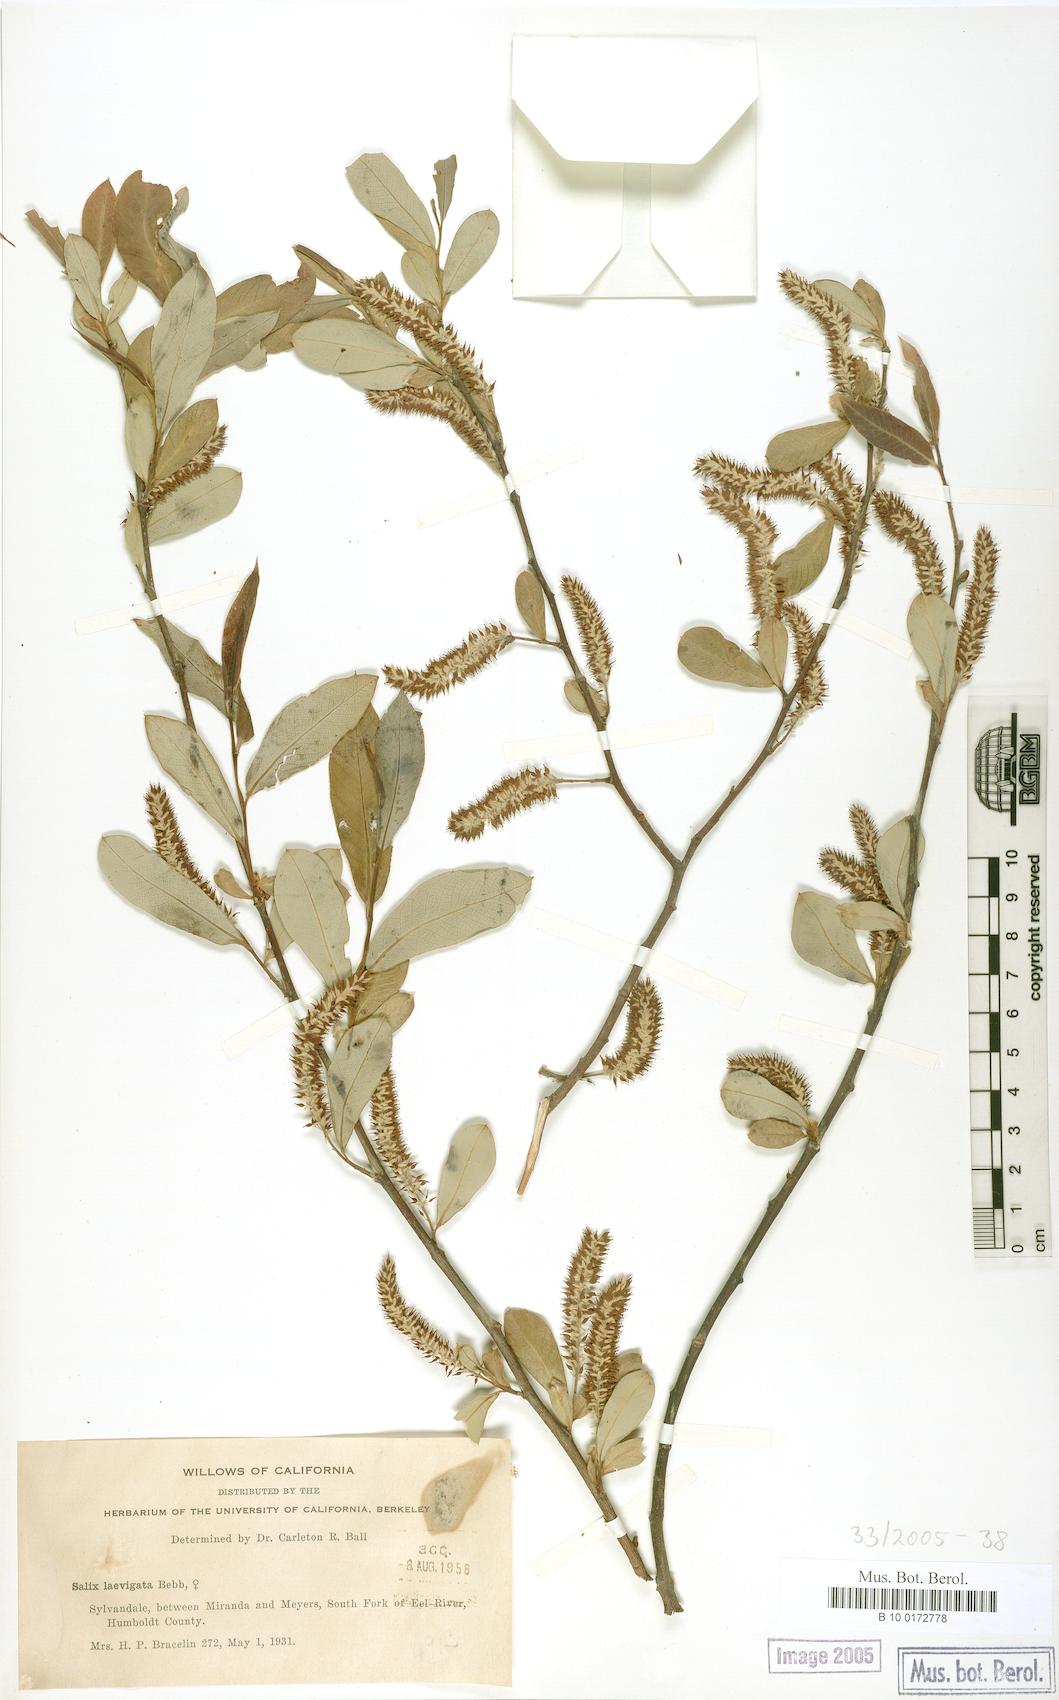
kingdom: Plantae
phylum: Tracheophyta
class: Magnoliopsida
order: Malpighiales
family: Salicaceae
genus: Salix
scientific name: Salix laevigata
